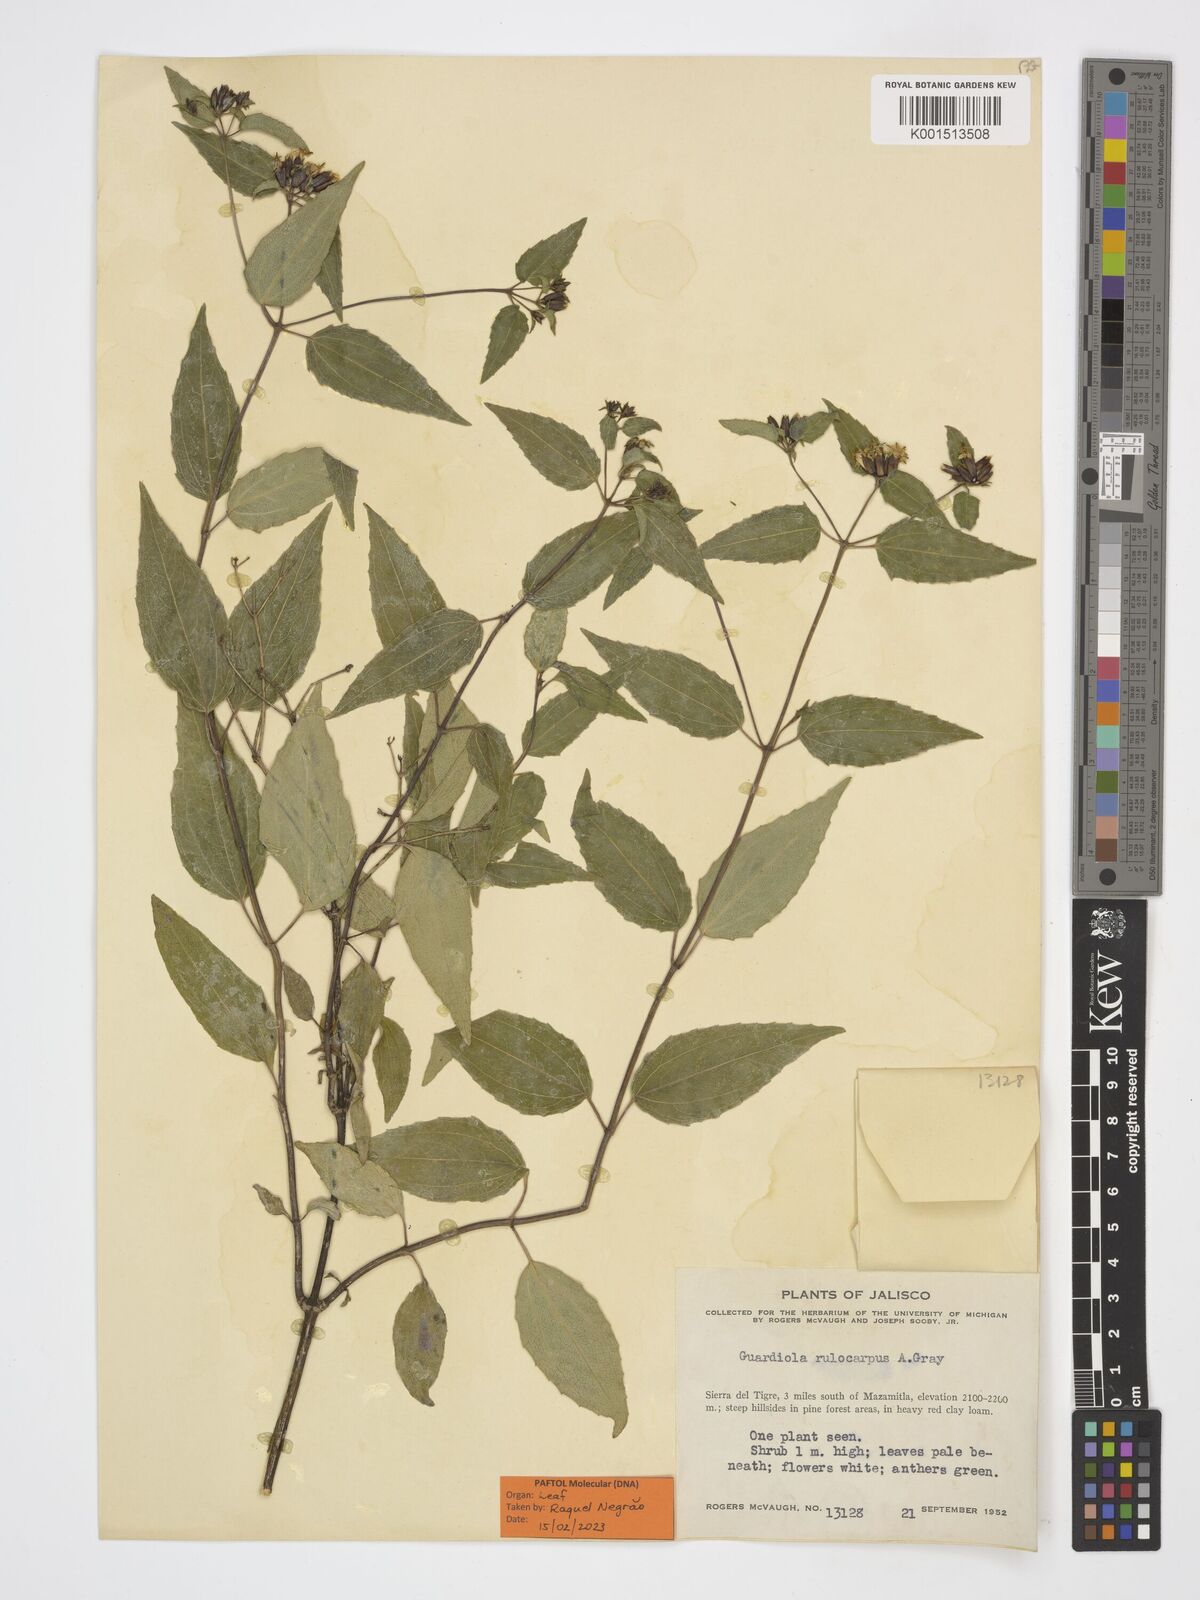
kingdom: Plantae
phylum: Tracheophyta
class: Magnoliopsida
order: Asterales
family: Asteraceae
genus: Guardiola
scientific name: Guardiola tulocarpus
